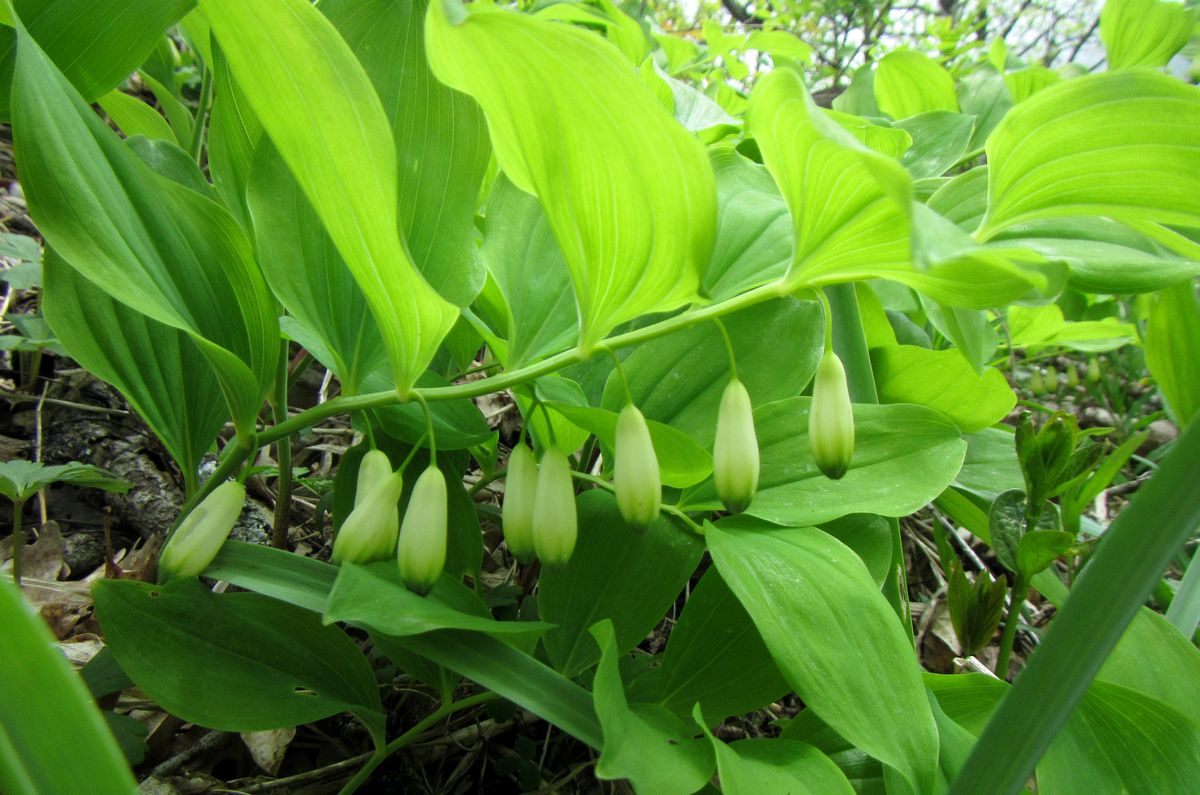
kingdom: Plantae
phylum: Tracheophyta
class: Liliopsida
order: Asparagales
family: Asparagaceae
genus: Polygonatum
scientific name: Polygonatum odoratum
